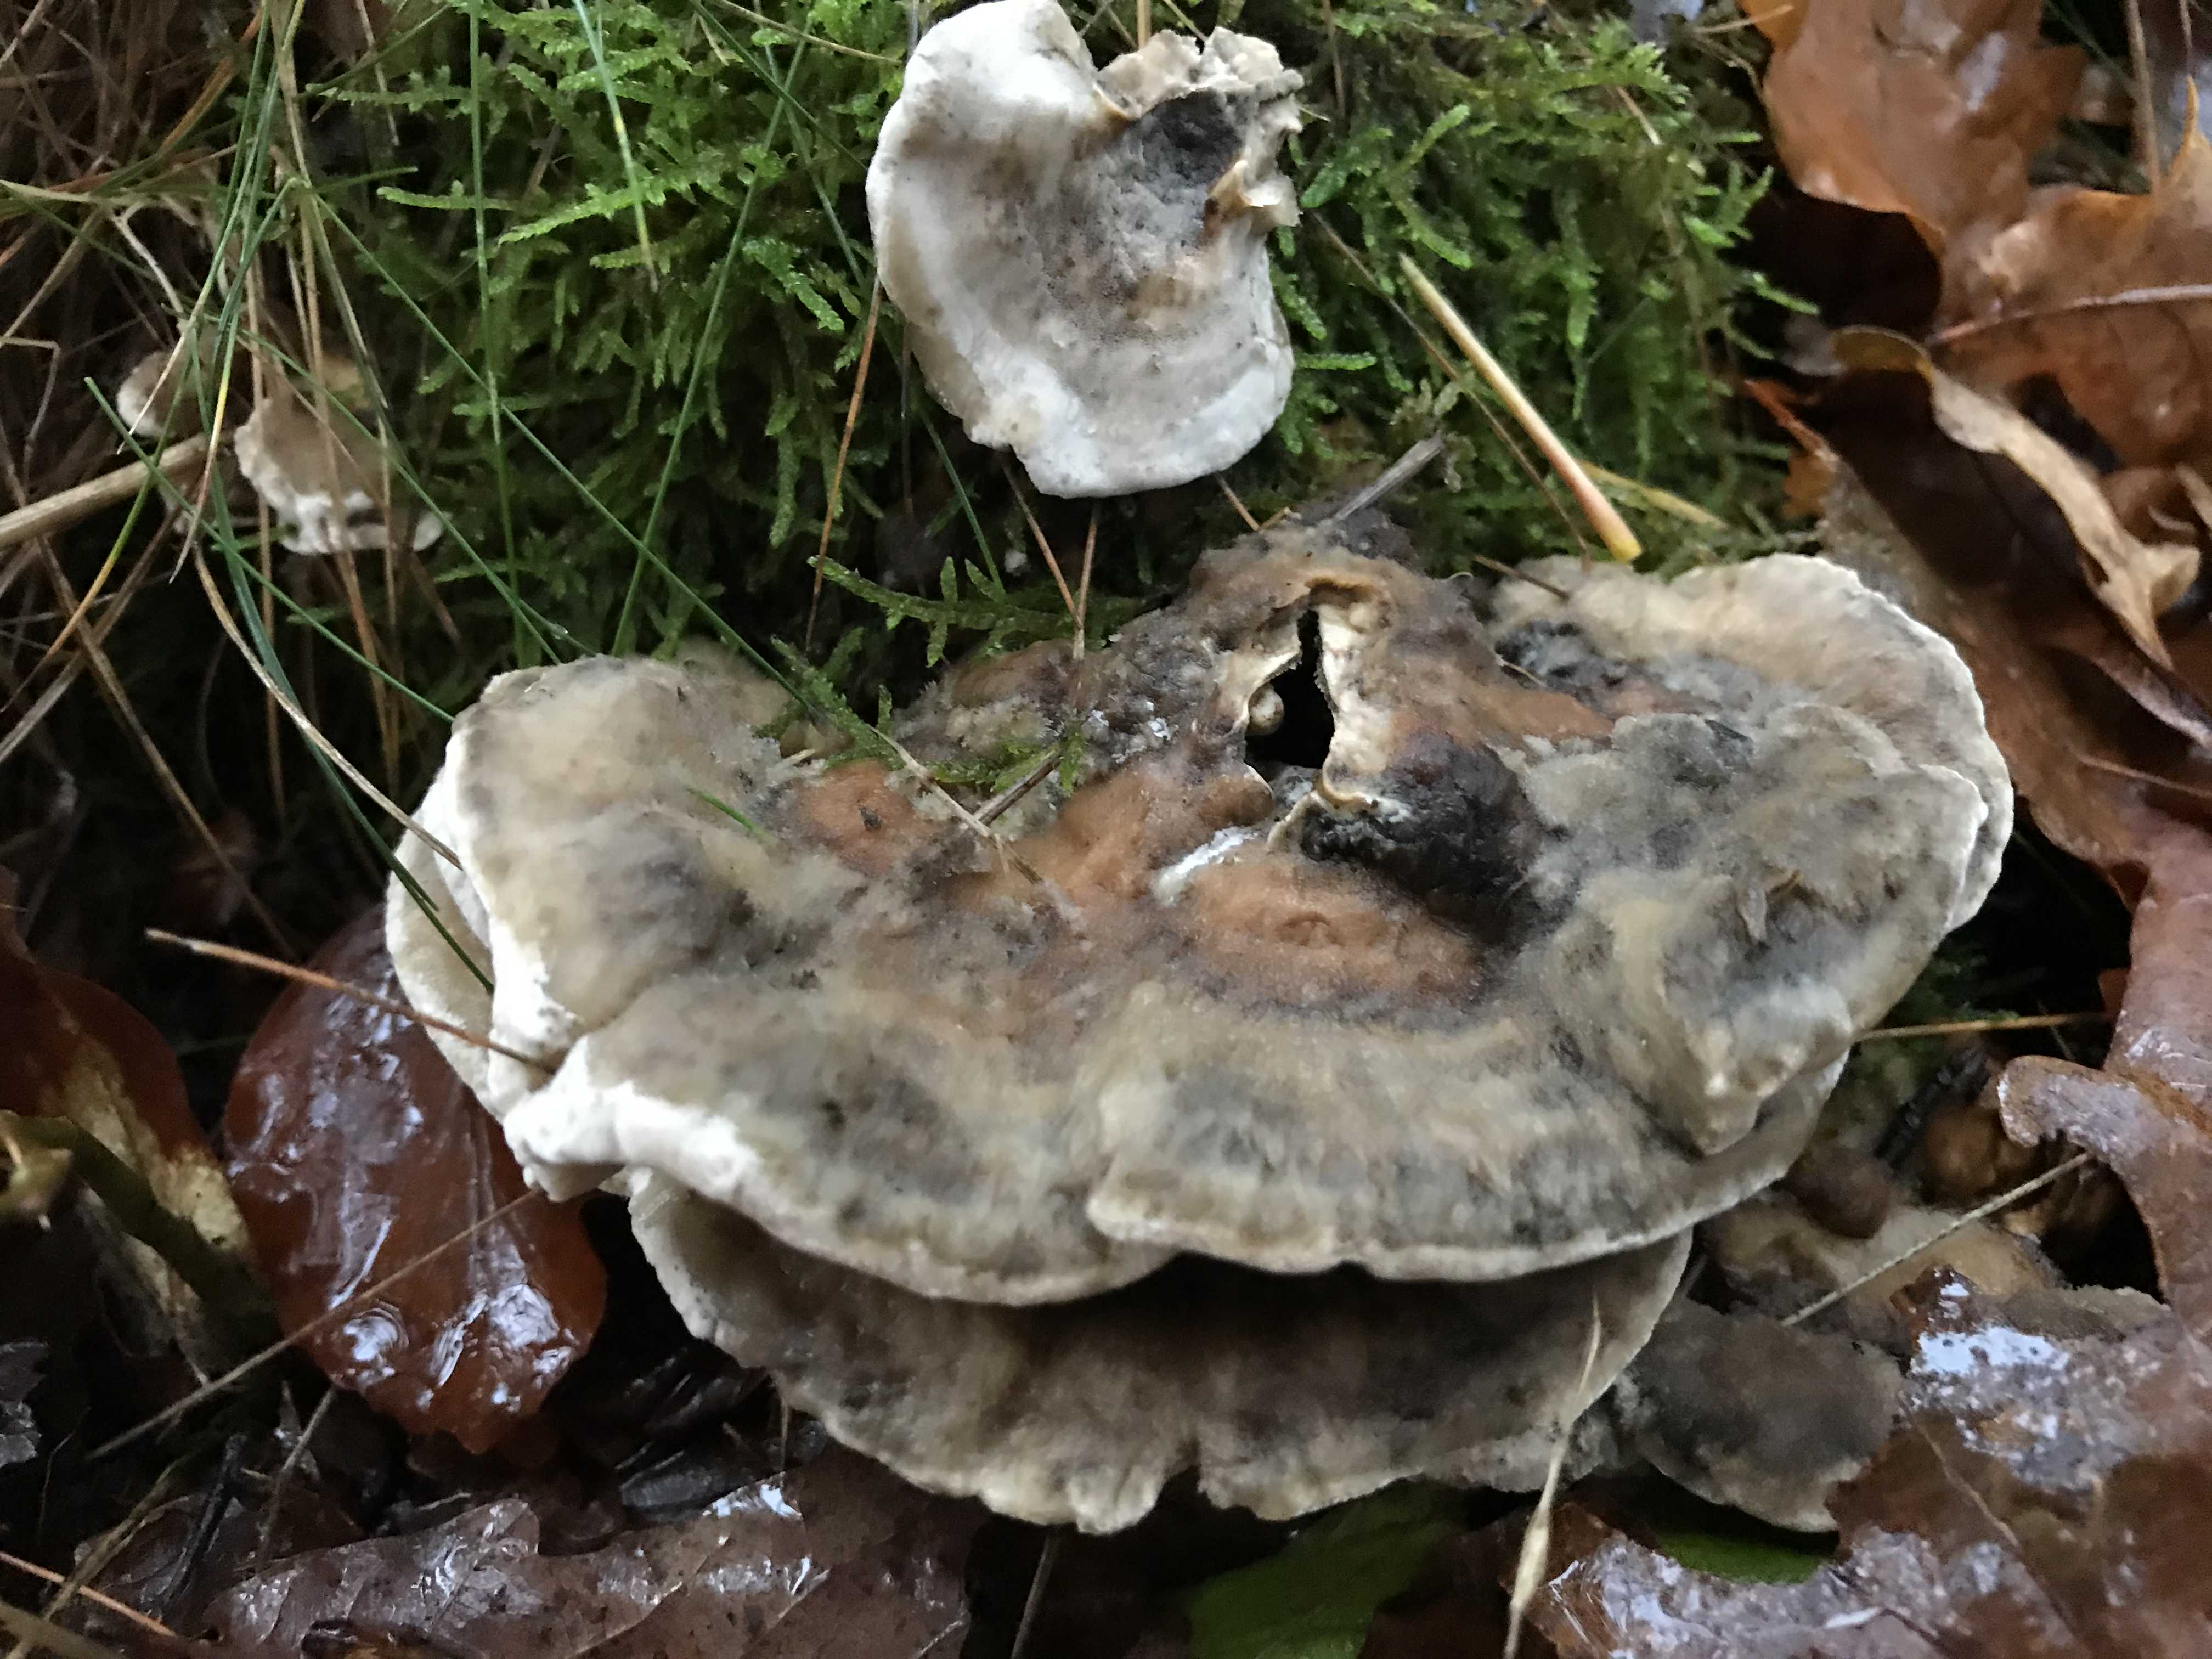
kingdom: Fungi
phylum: Basidiomycota
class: Agaricomycetes
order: Polyporales
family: Phanerochaetaceae
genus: Bjerkandera
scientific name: Bjerkandera adusta
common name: sveden sodporesvamp
